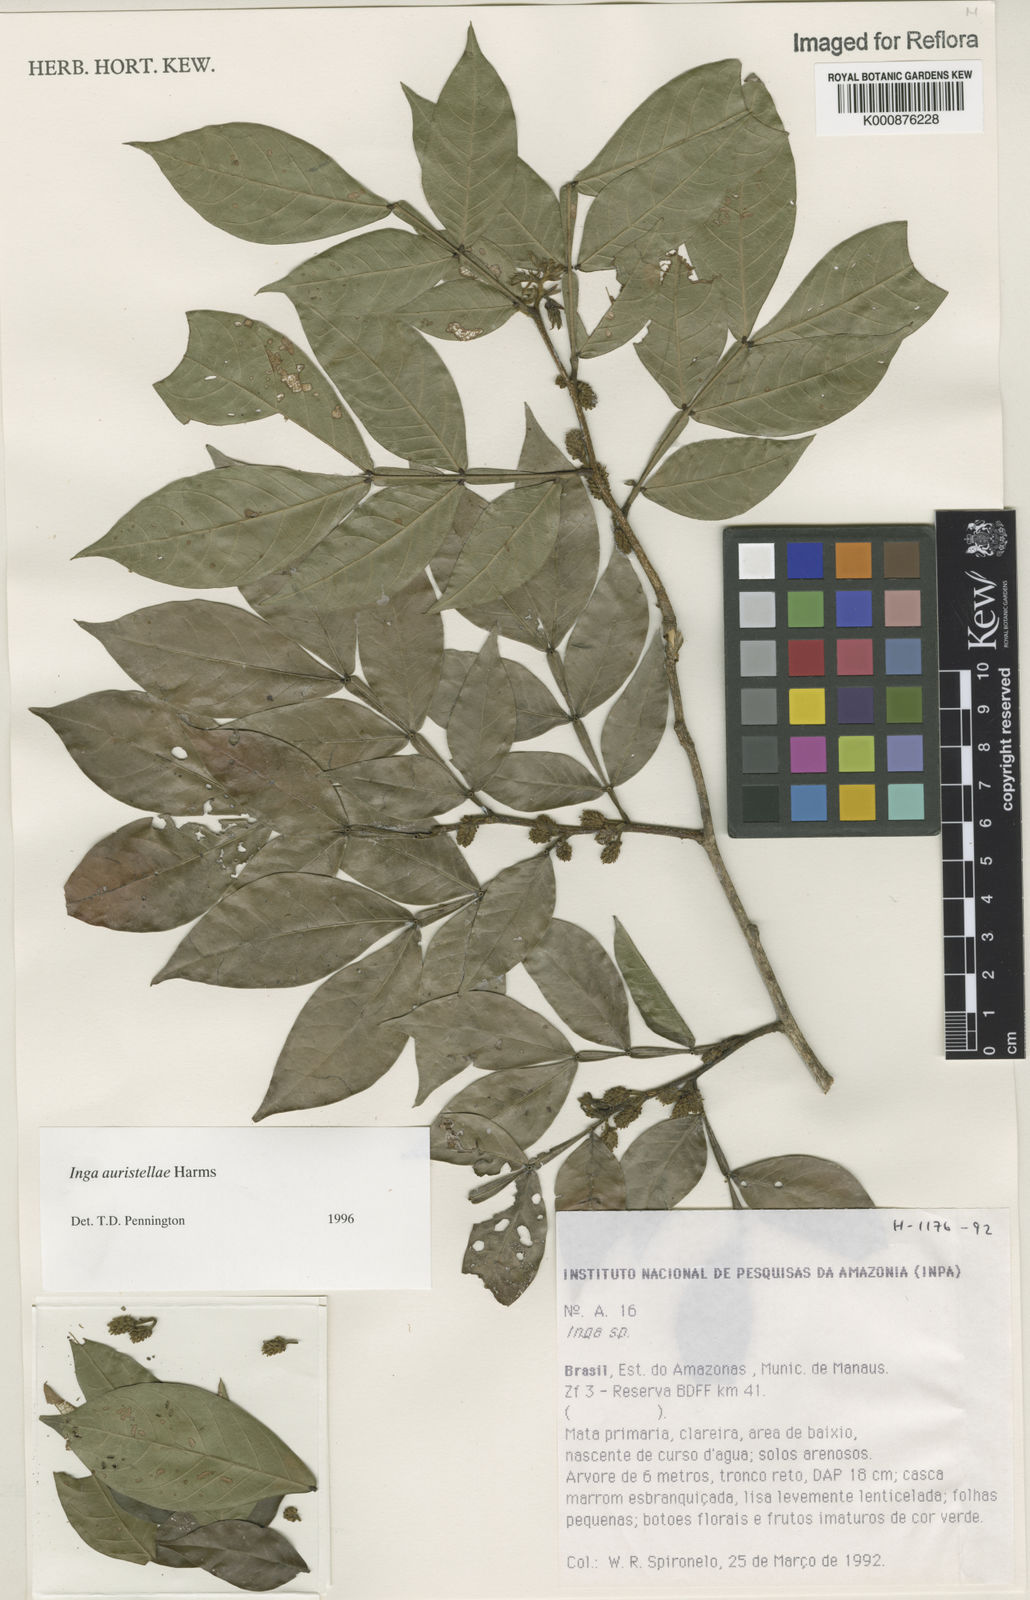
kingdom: Plantae
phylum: Tracheophyta
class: Magnoliopsida
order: Fabales
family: Fabaceae
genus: Inga
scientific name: Inga auristellae
